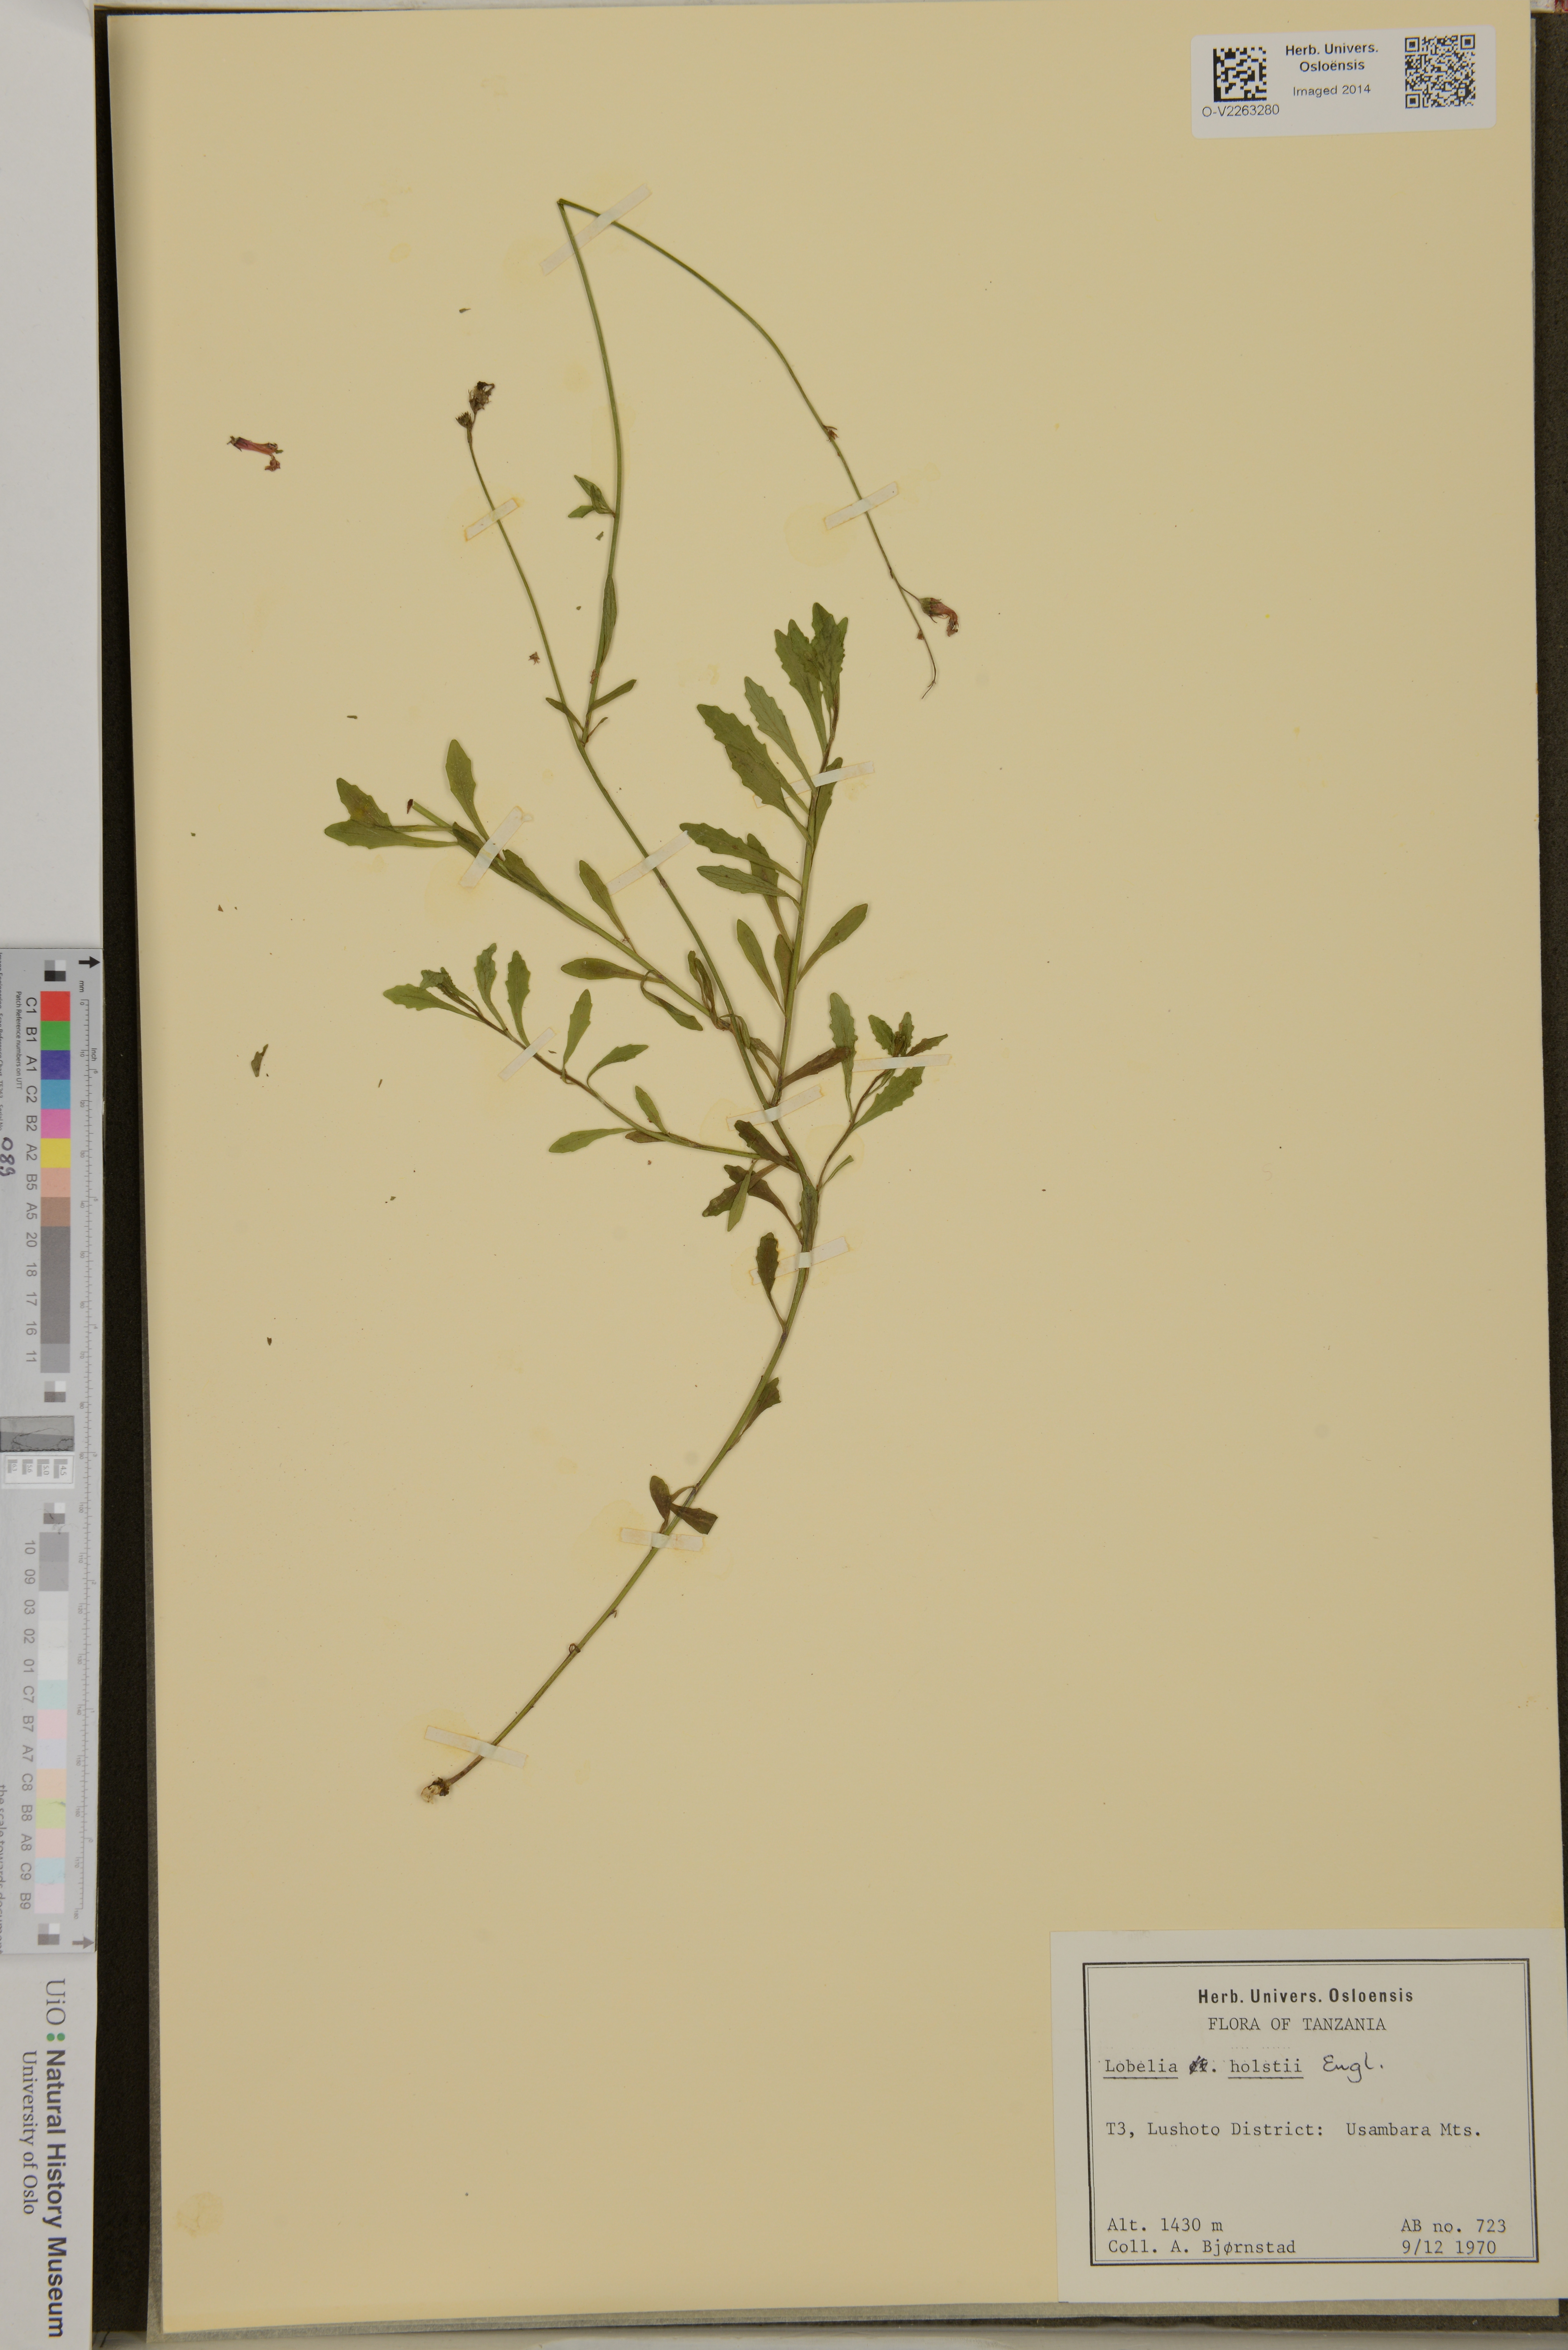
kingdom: Plantae
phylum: Tracheophyta
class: Magnoliopsida
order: Asterales
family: Campanulaceae
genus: Lobelia
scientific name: Lobelia holstii
